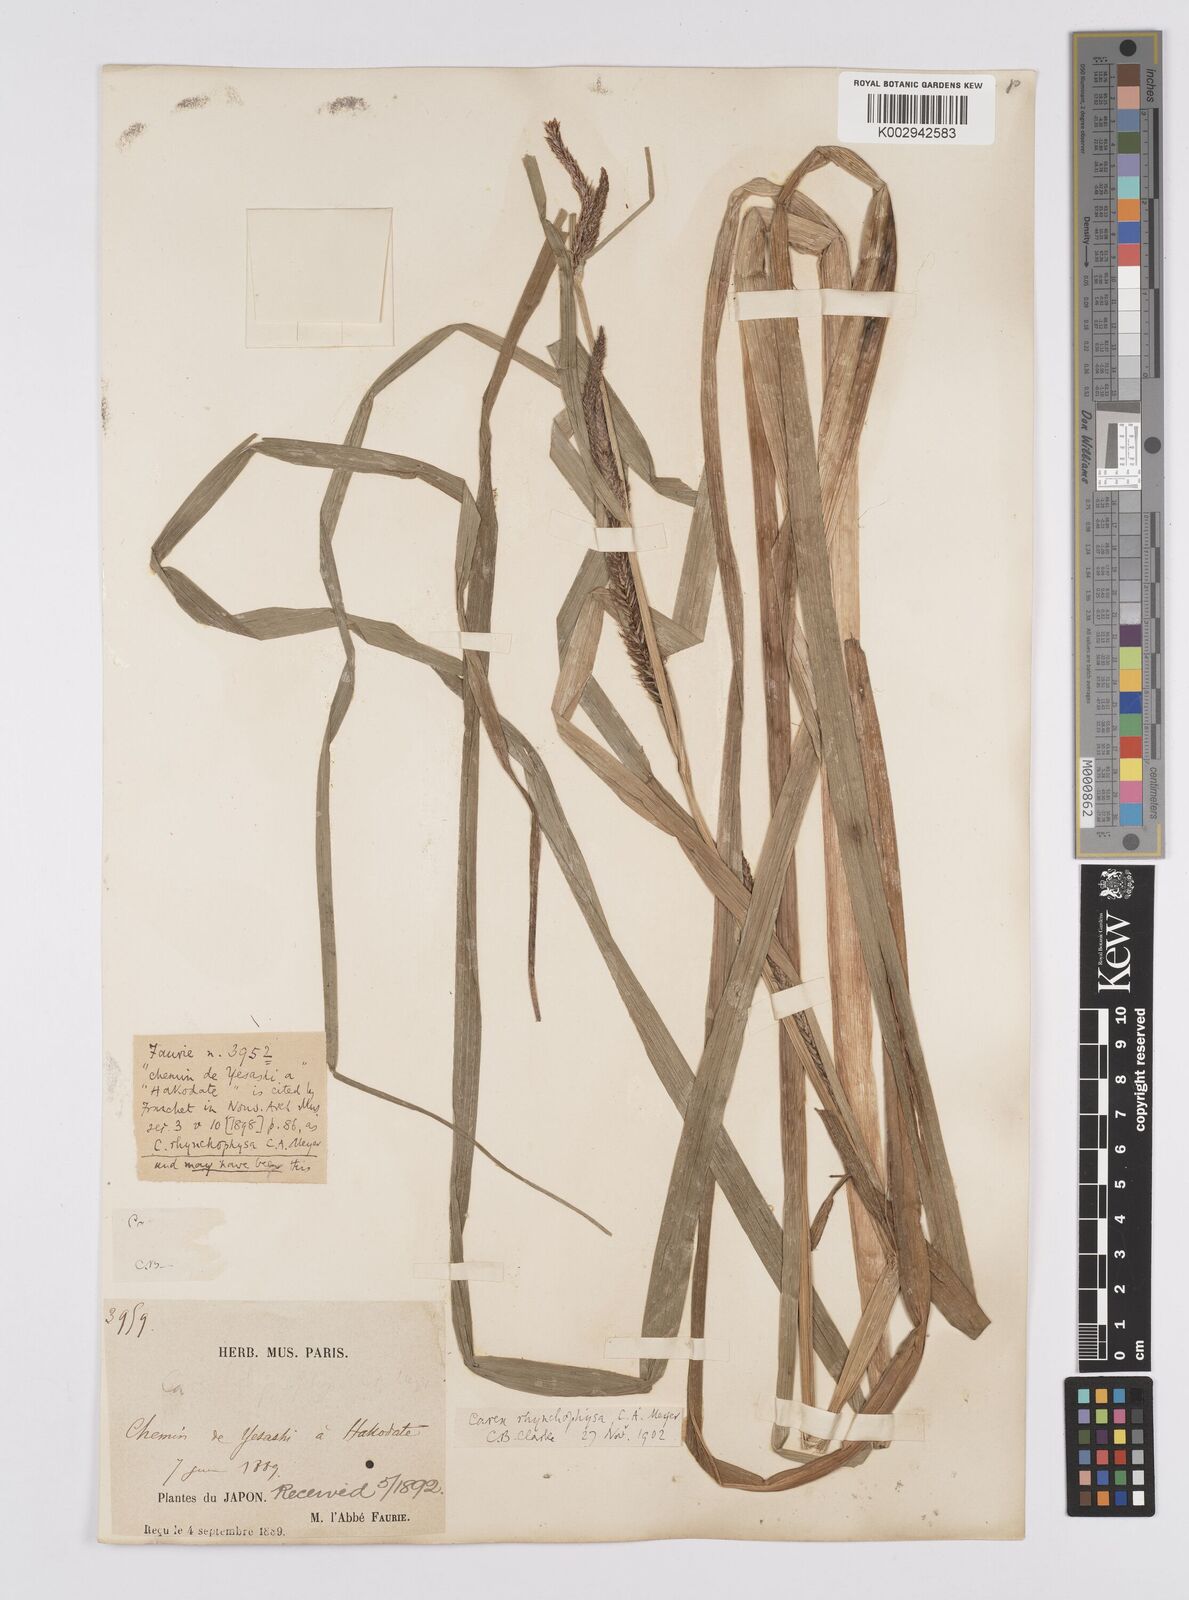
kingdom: Plantae
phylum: Tracheophyta
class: Liliopsida
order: Poales
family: Cyperaceae
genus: Carex
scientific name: Carex utriculata
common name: Beaked sedge
